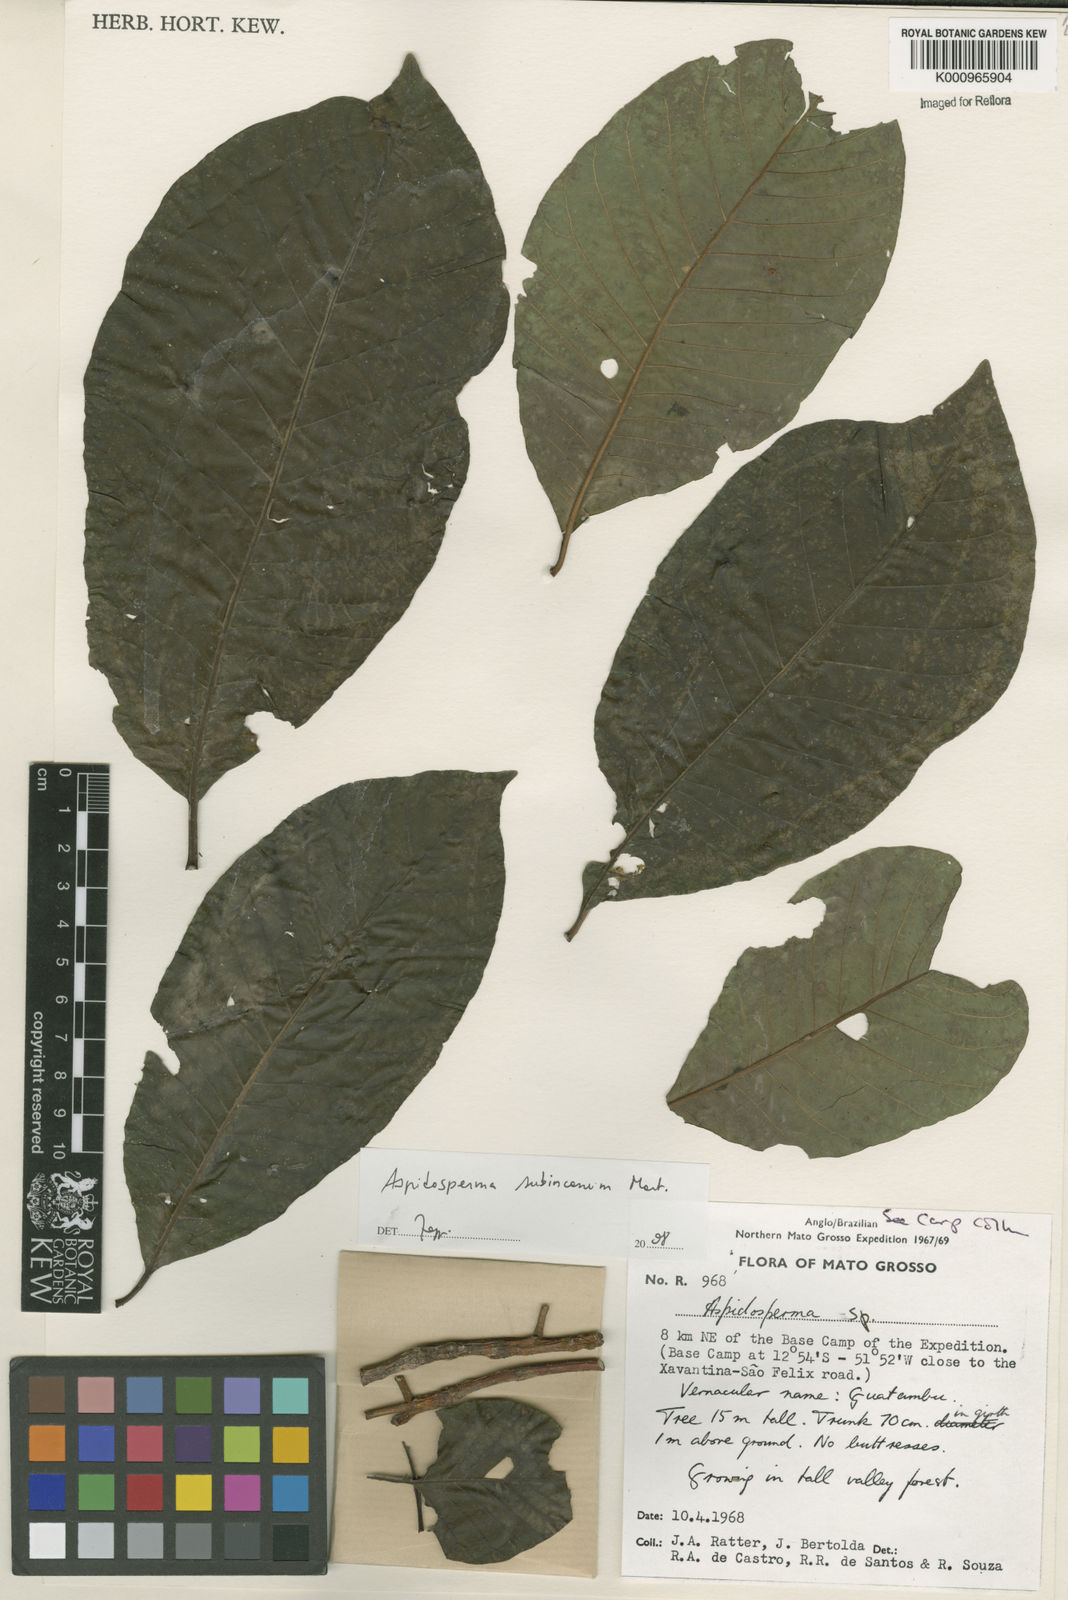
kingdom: Plantae
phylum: Tracheophyta
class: Magnoliopsida
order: Gentianales
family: Apocynaceae
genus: Aspidosperma
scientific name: Aspidosperma subincanum
